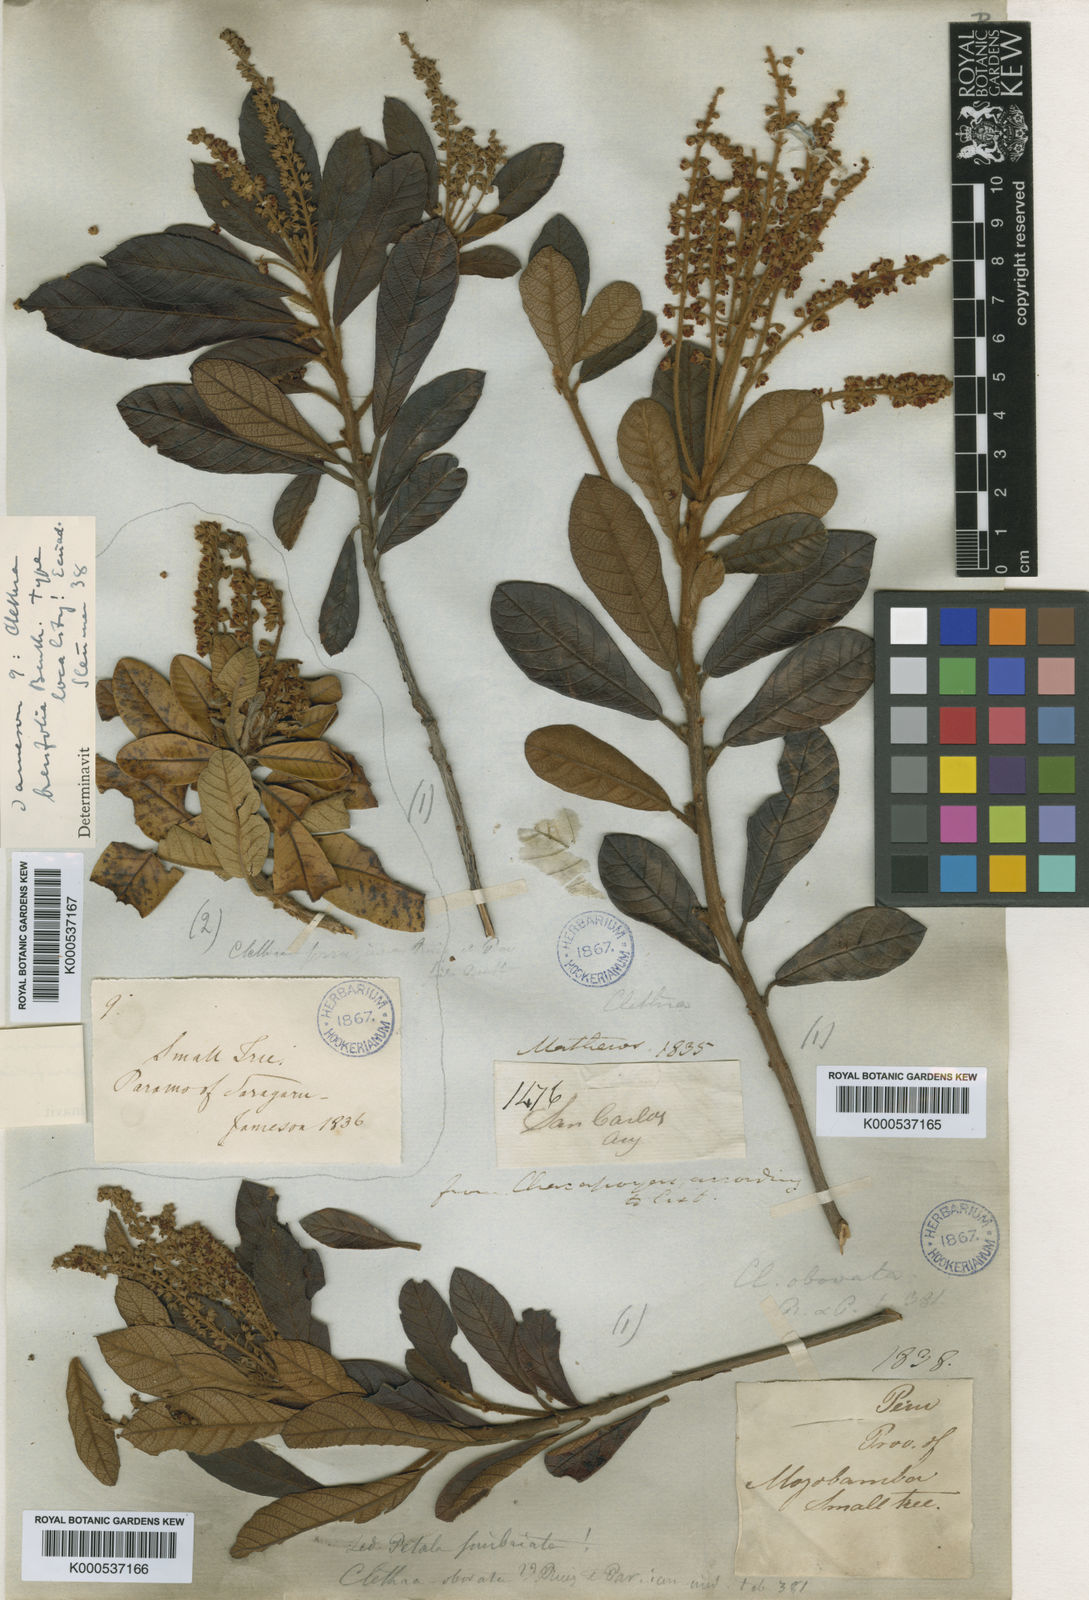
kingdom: Plantae
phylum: Tracheophyta
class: Magnoliopsida
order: Ericales
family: Clethraceae
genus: Clethra
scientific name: Clethra castaneifolia
